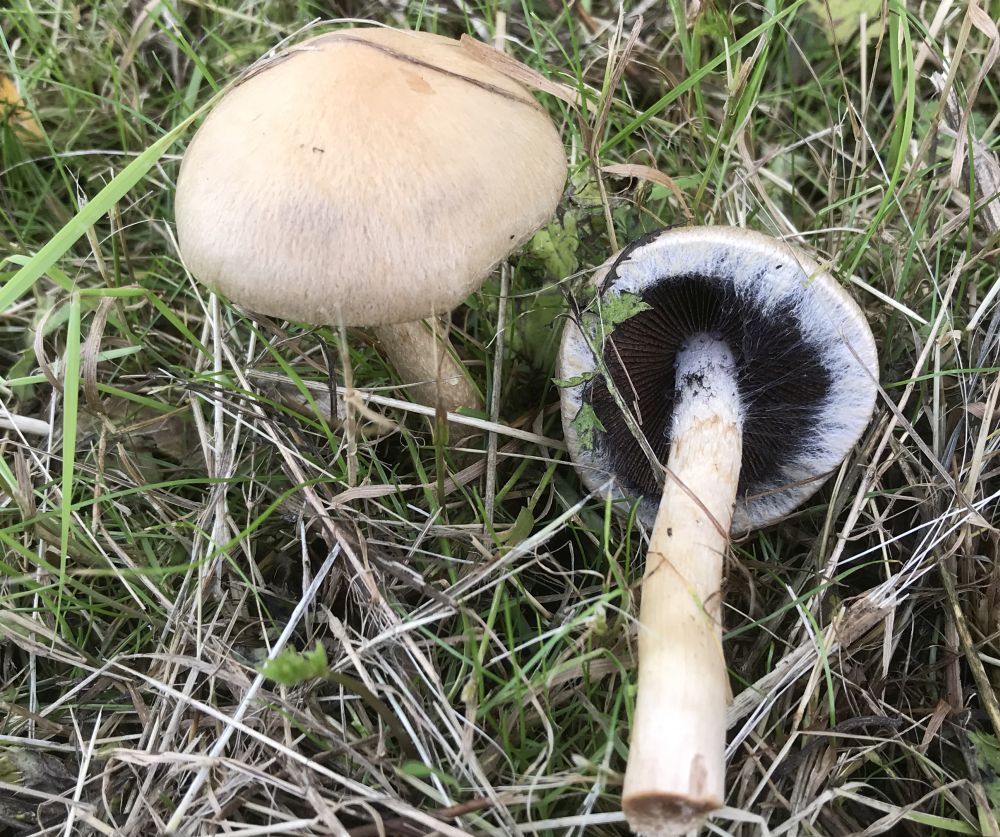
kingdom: Fungi
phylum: Basidiomycota
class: Agaricomycetes
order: Agaricales
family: Psathyrellaceae
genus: Lacrymaria
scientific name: Lacrymaria lacrymabunda
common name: grædende mørkhat
